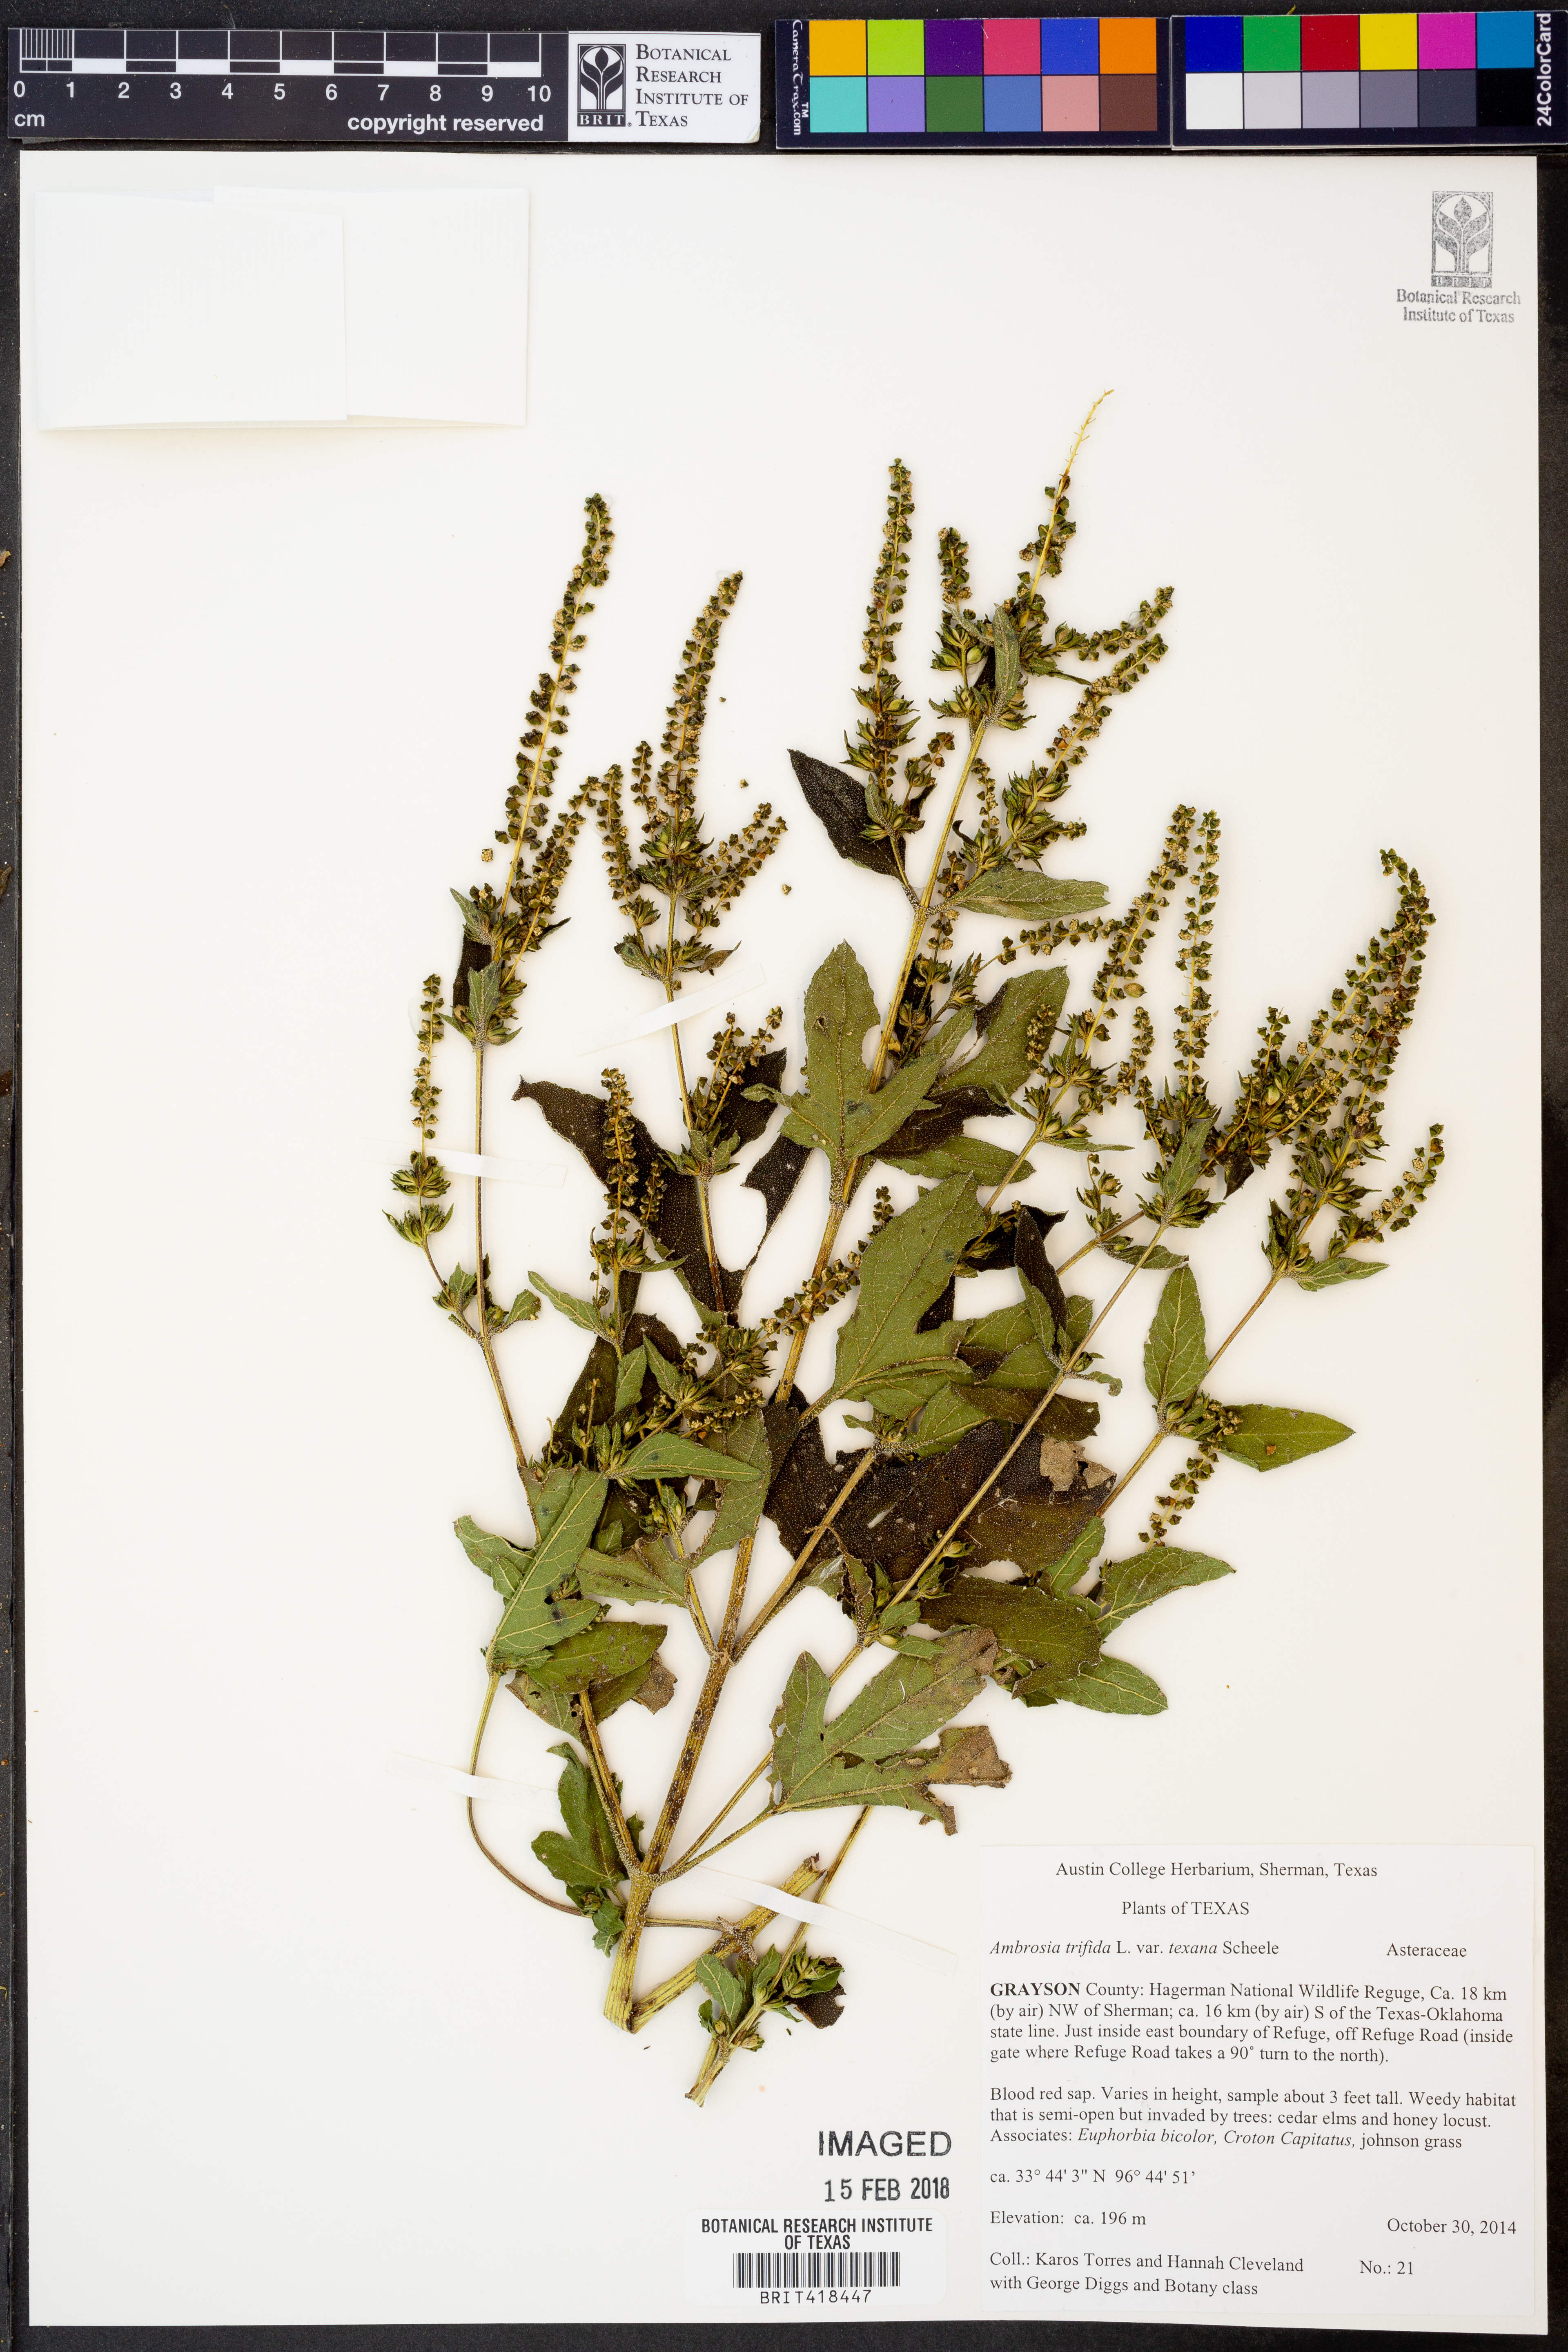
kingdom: Plantae
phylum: Tracheophyta
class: Magnoliopsida
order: Asterales
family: Asteraceae
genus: Ambrosia
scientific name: Ambrosia trifida
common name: Giant ragweed
